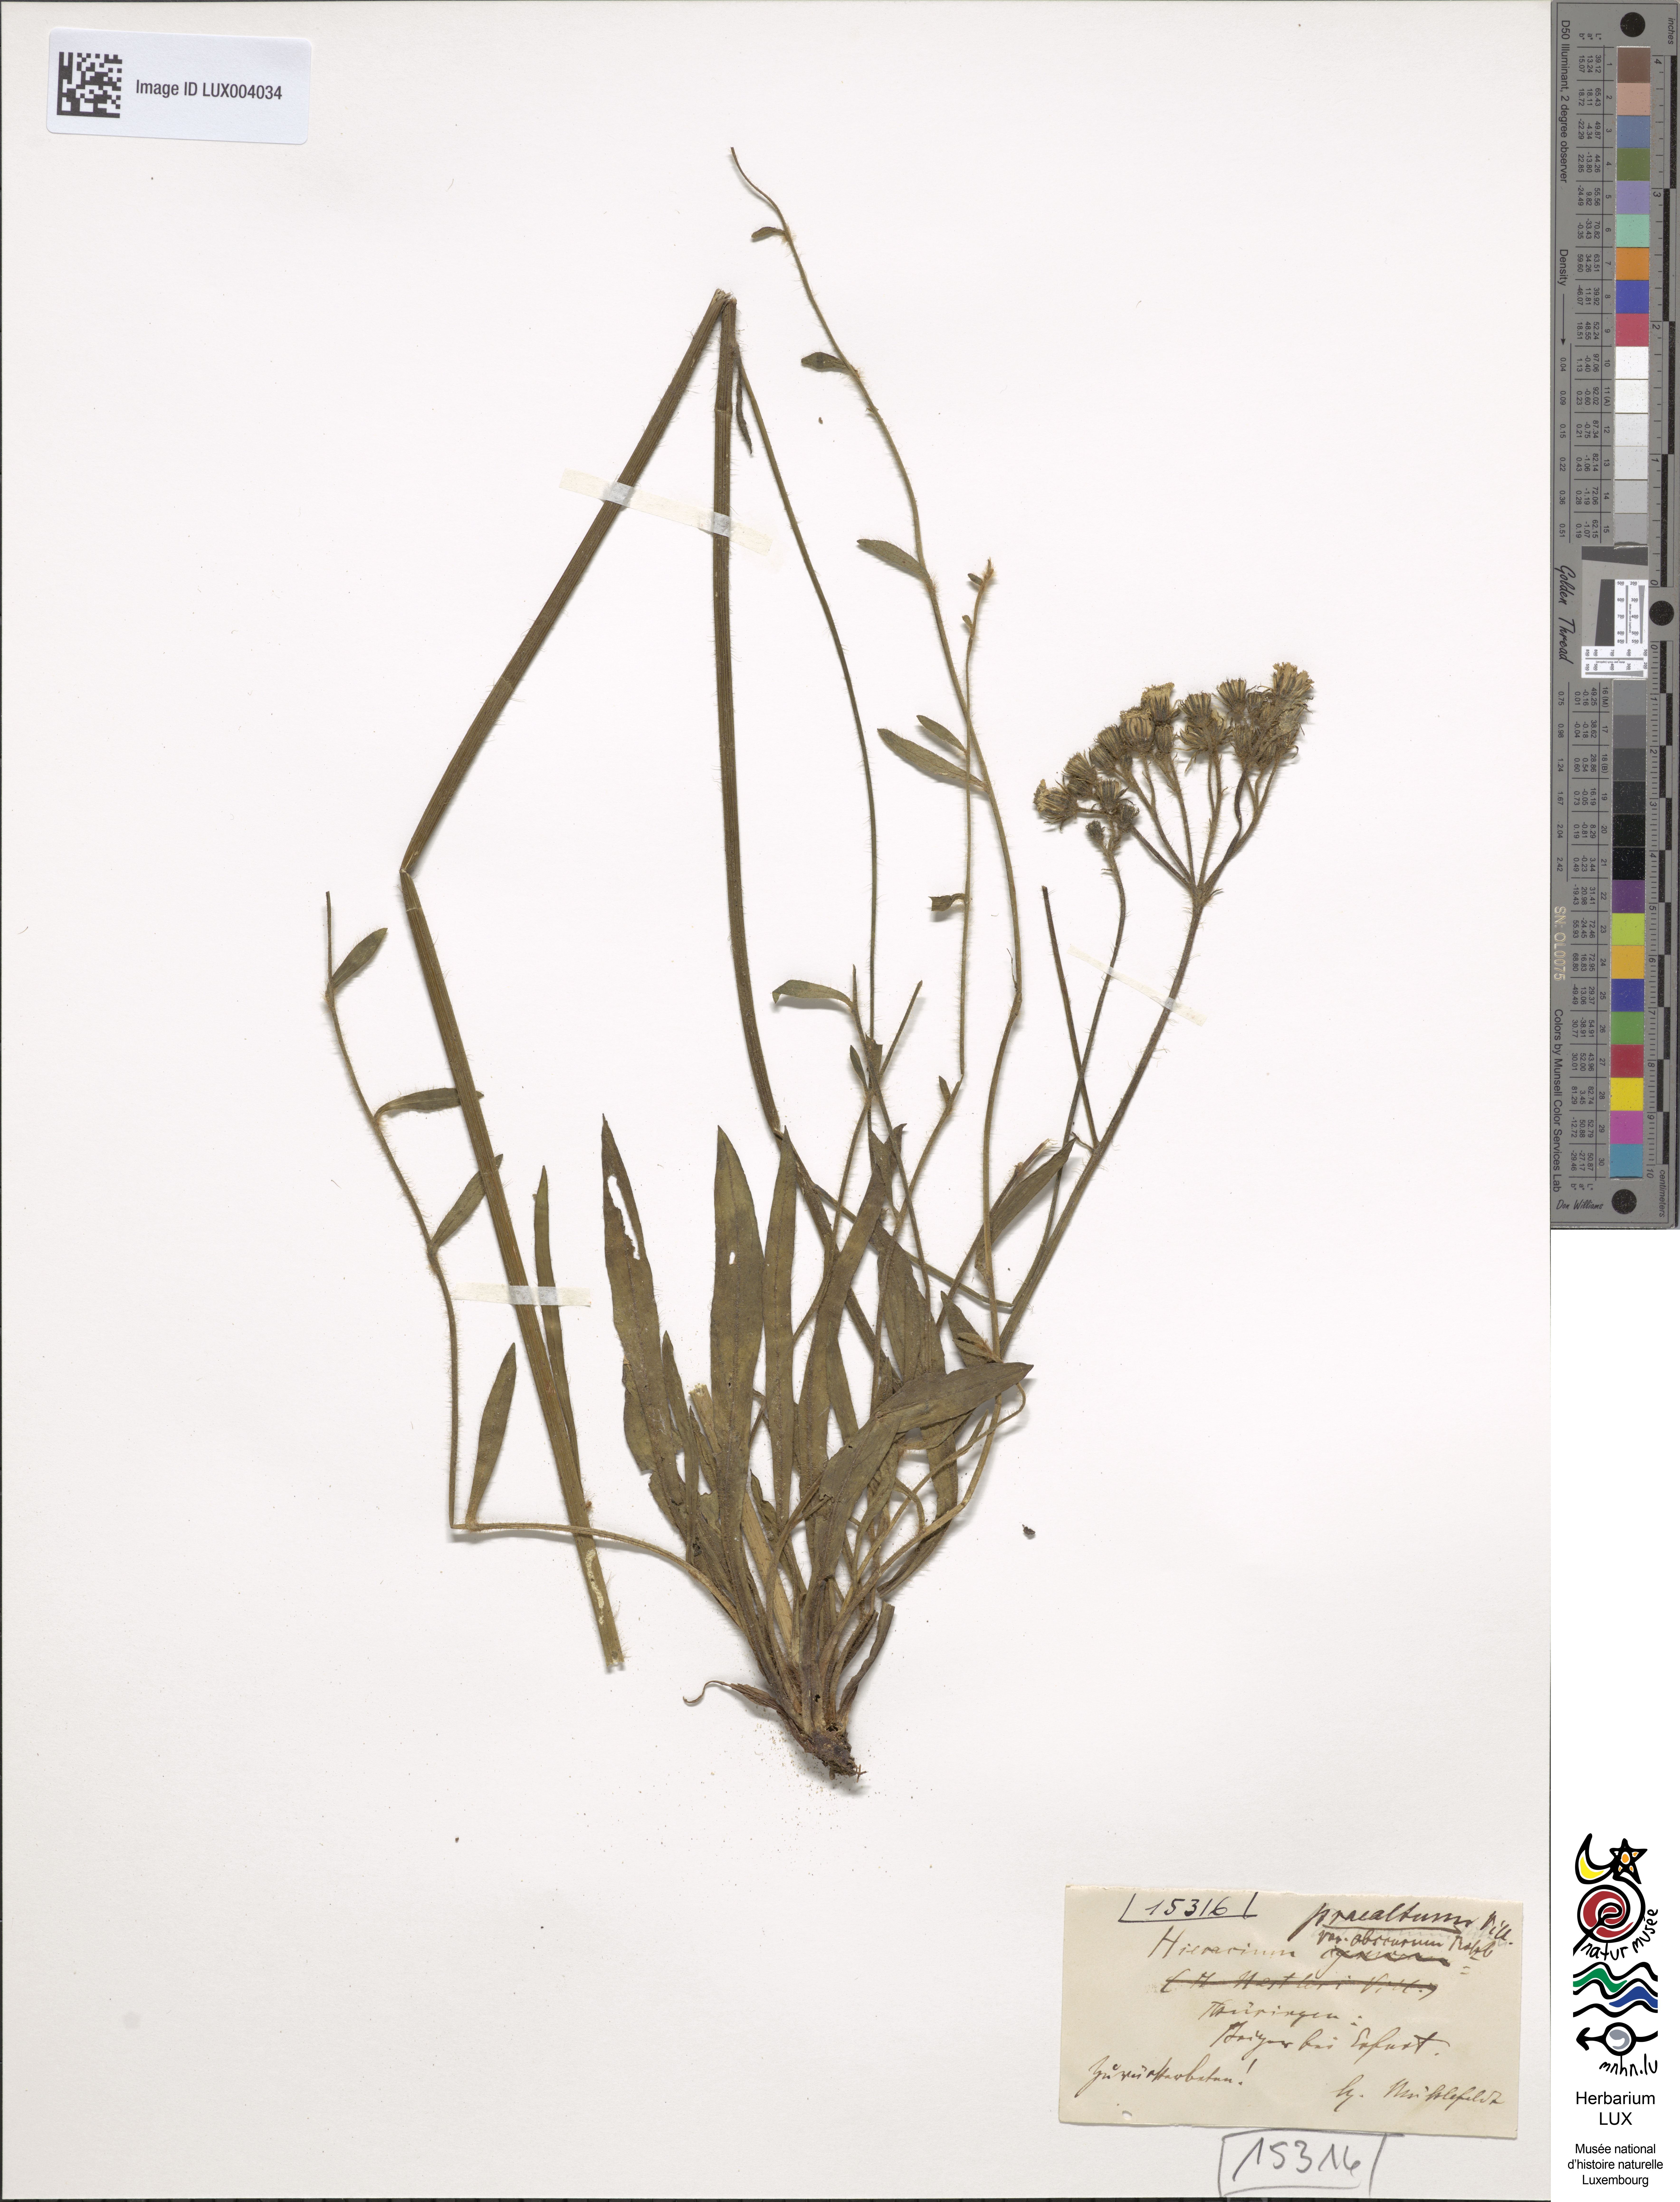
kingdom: Plantae
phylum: Tracheophyta
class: Magnoliopsida
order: Asterales
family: Asteraceae
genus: Pilosella
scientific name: Pilosella piloselloides
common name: Glaucous king-devil
